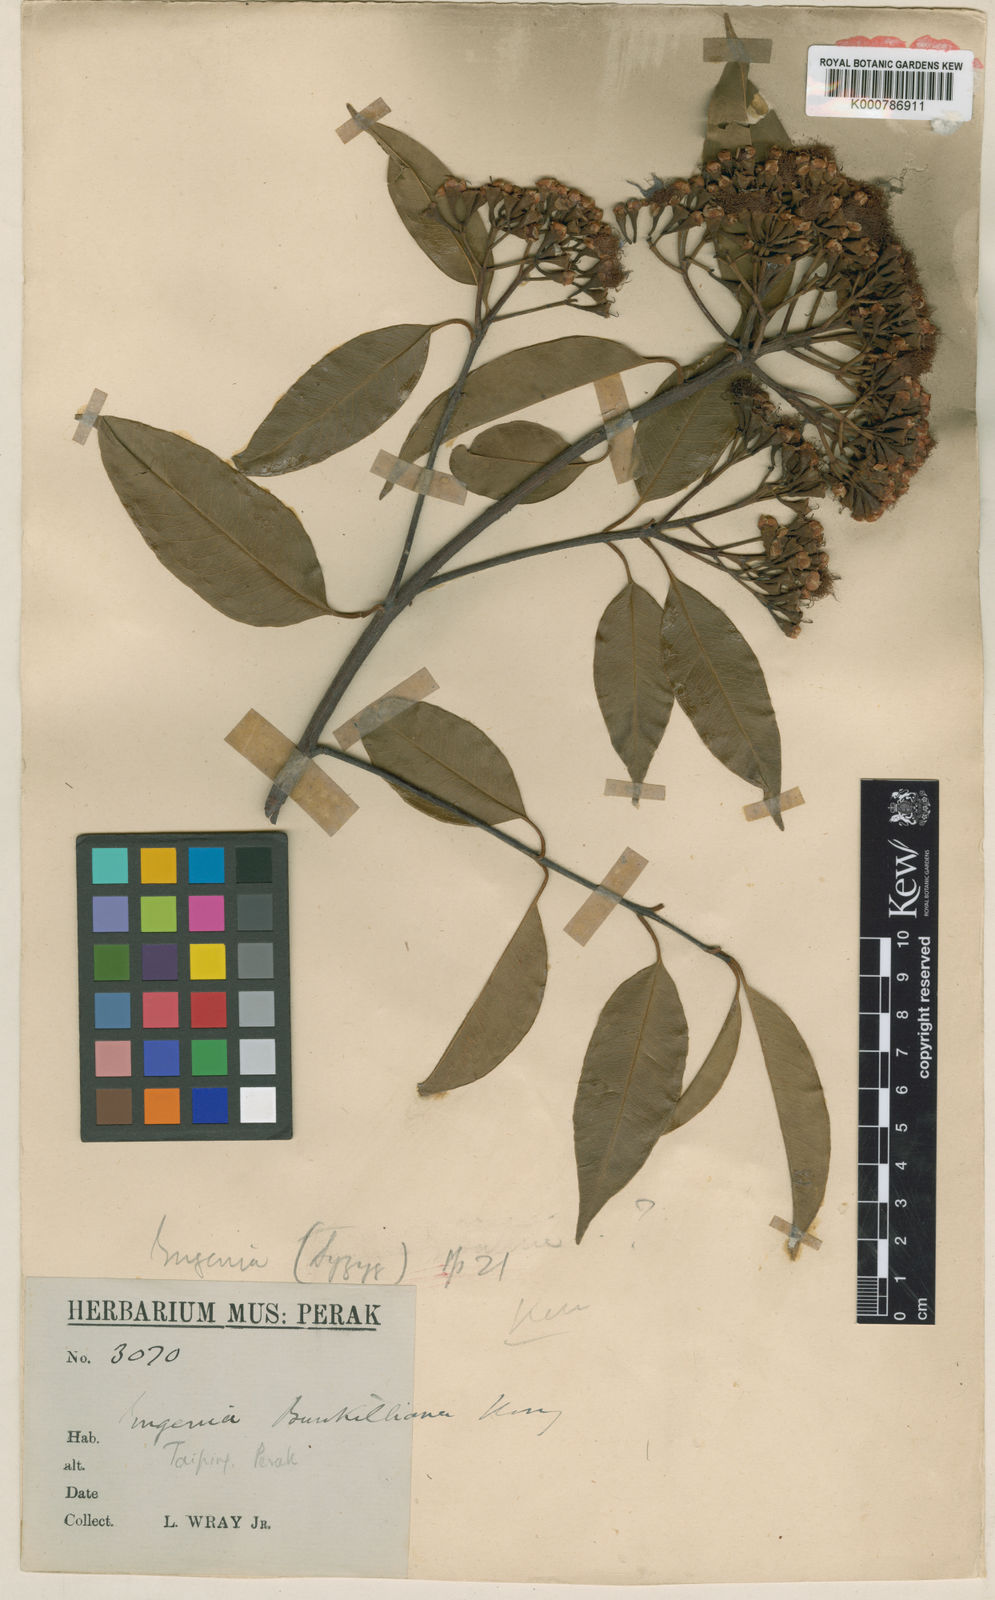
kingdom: Plantae
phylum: Tracheophyta
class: Magnoliopsida
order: Myrtales
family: Myrtaceae
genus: Syzygium
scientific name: Syzygium burkillianum
